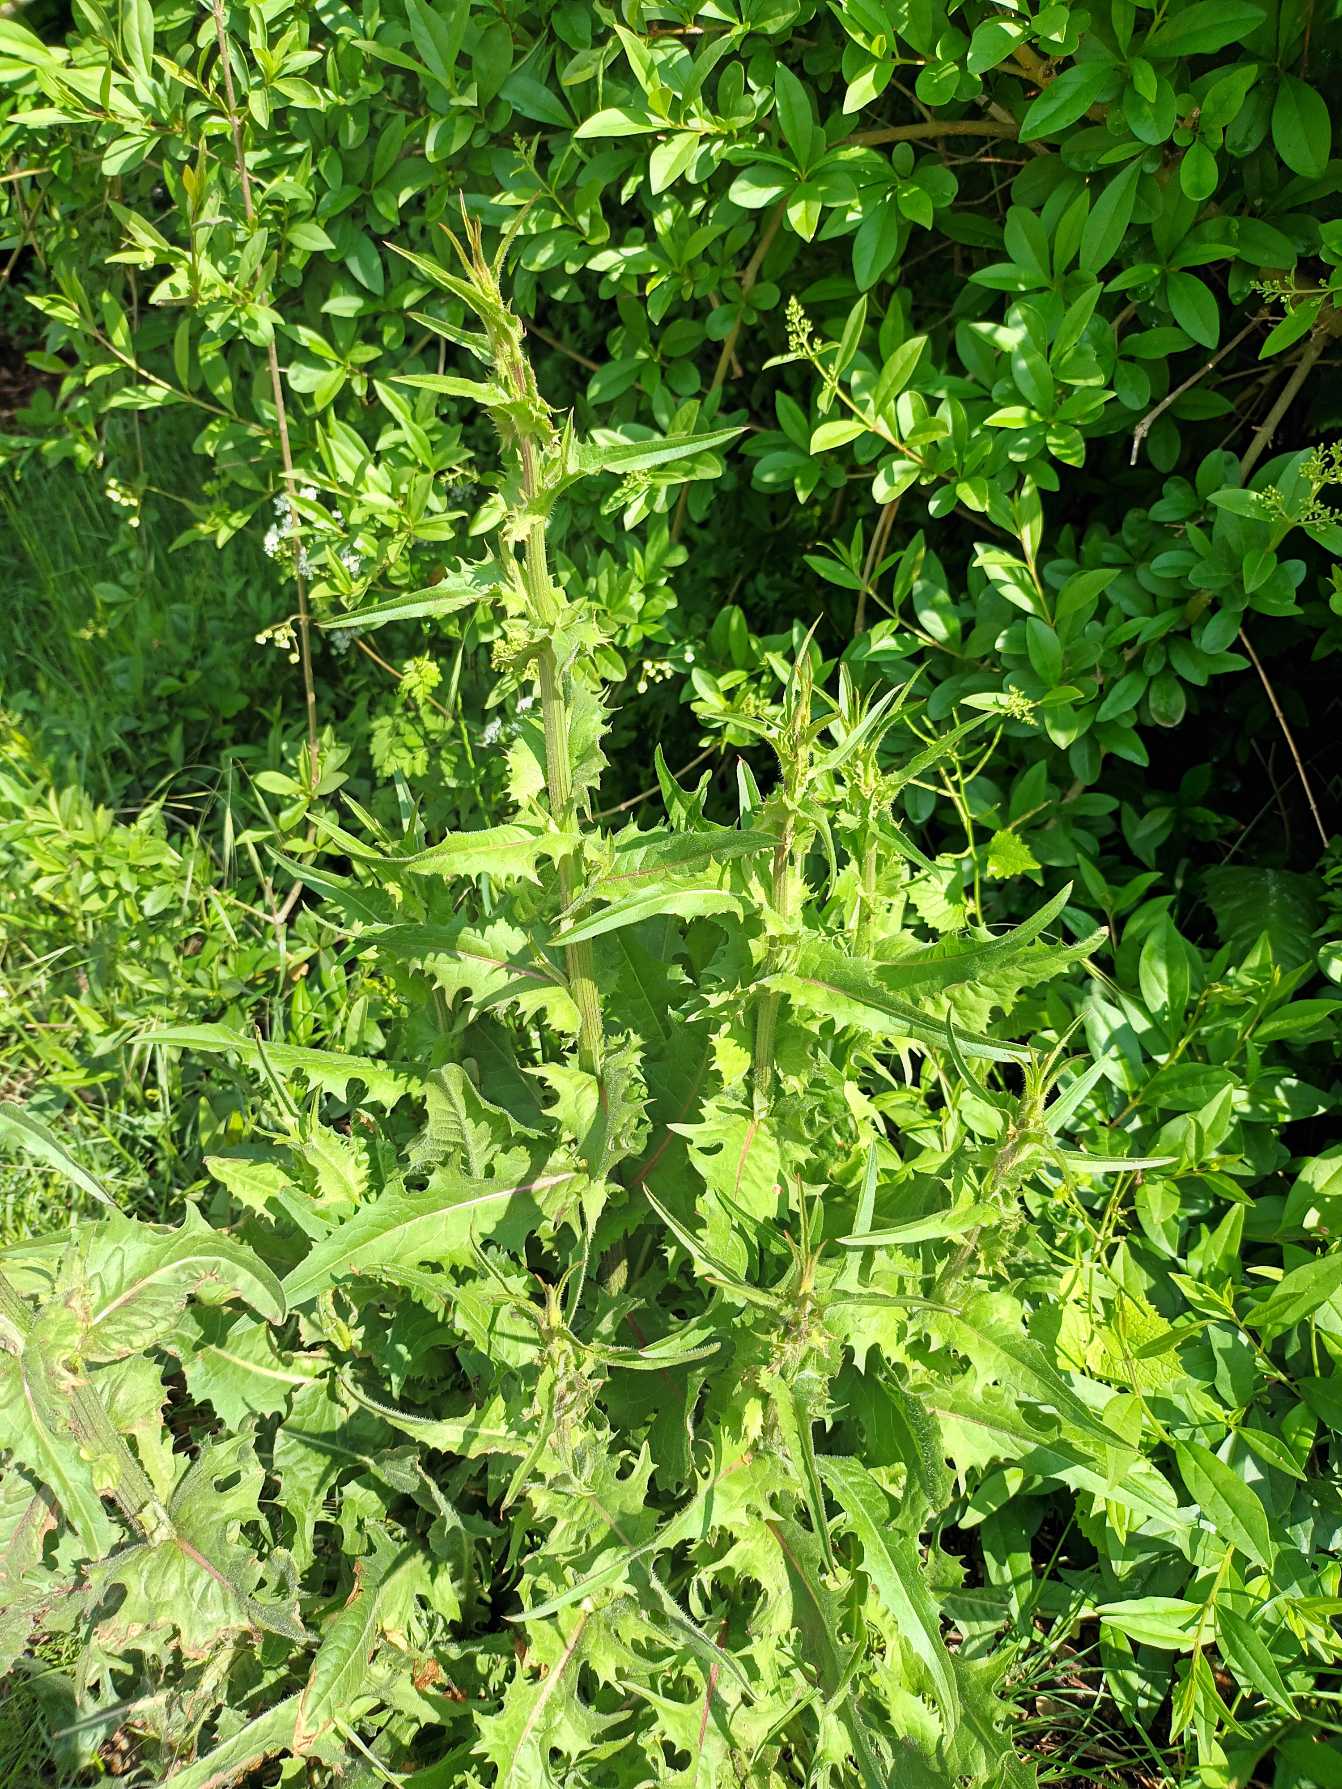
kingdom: Plantae
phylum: Tracheophyta
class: Magnoliopsida
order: Asterales
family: Asteraceae
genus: Cichorium
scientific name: Cichorium intybus
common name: Cikorie
